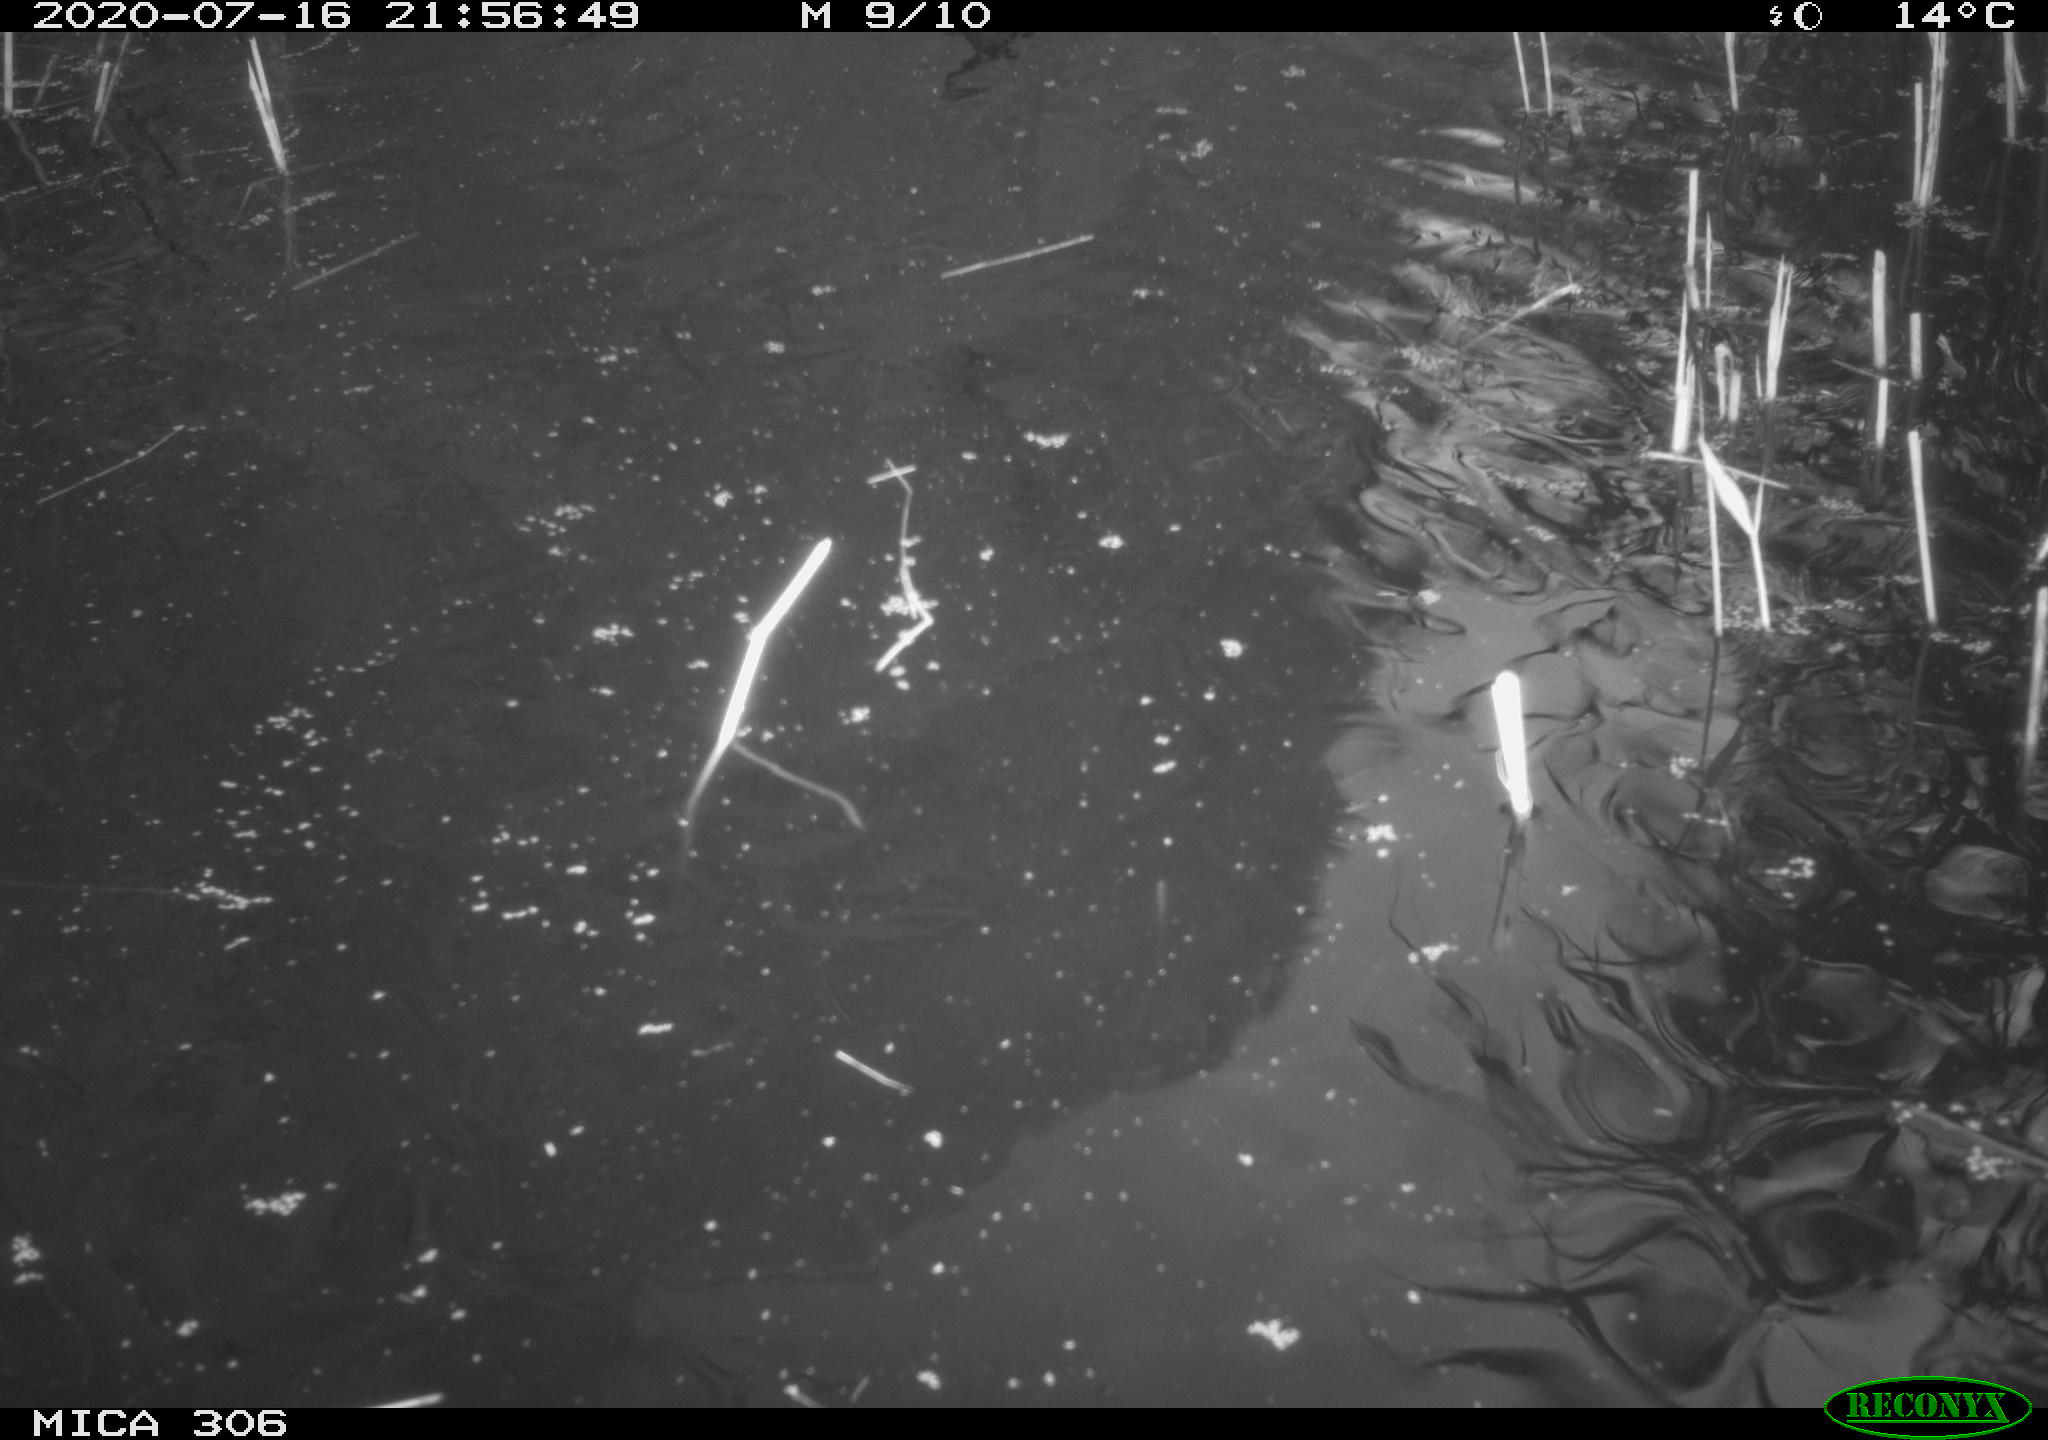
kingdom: Animalia
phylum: Chordata
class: Aves
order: Anseriformes
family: Anatidae
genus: Anas
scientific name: Anas platyrhynchos
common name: Mallard
